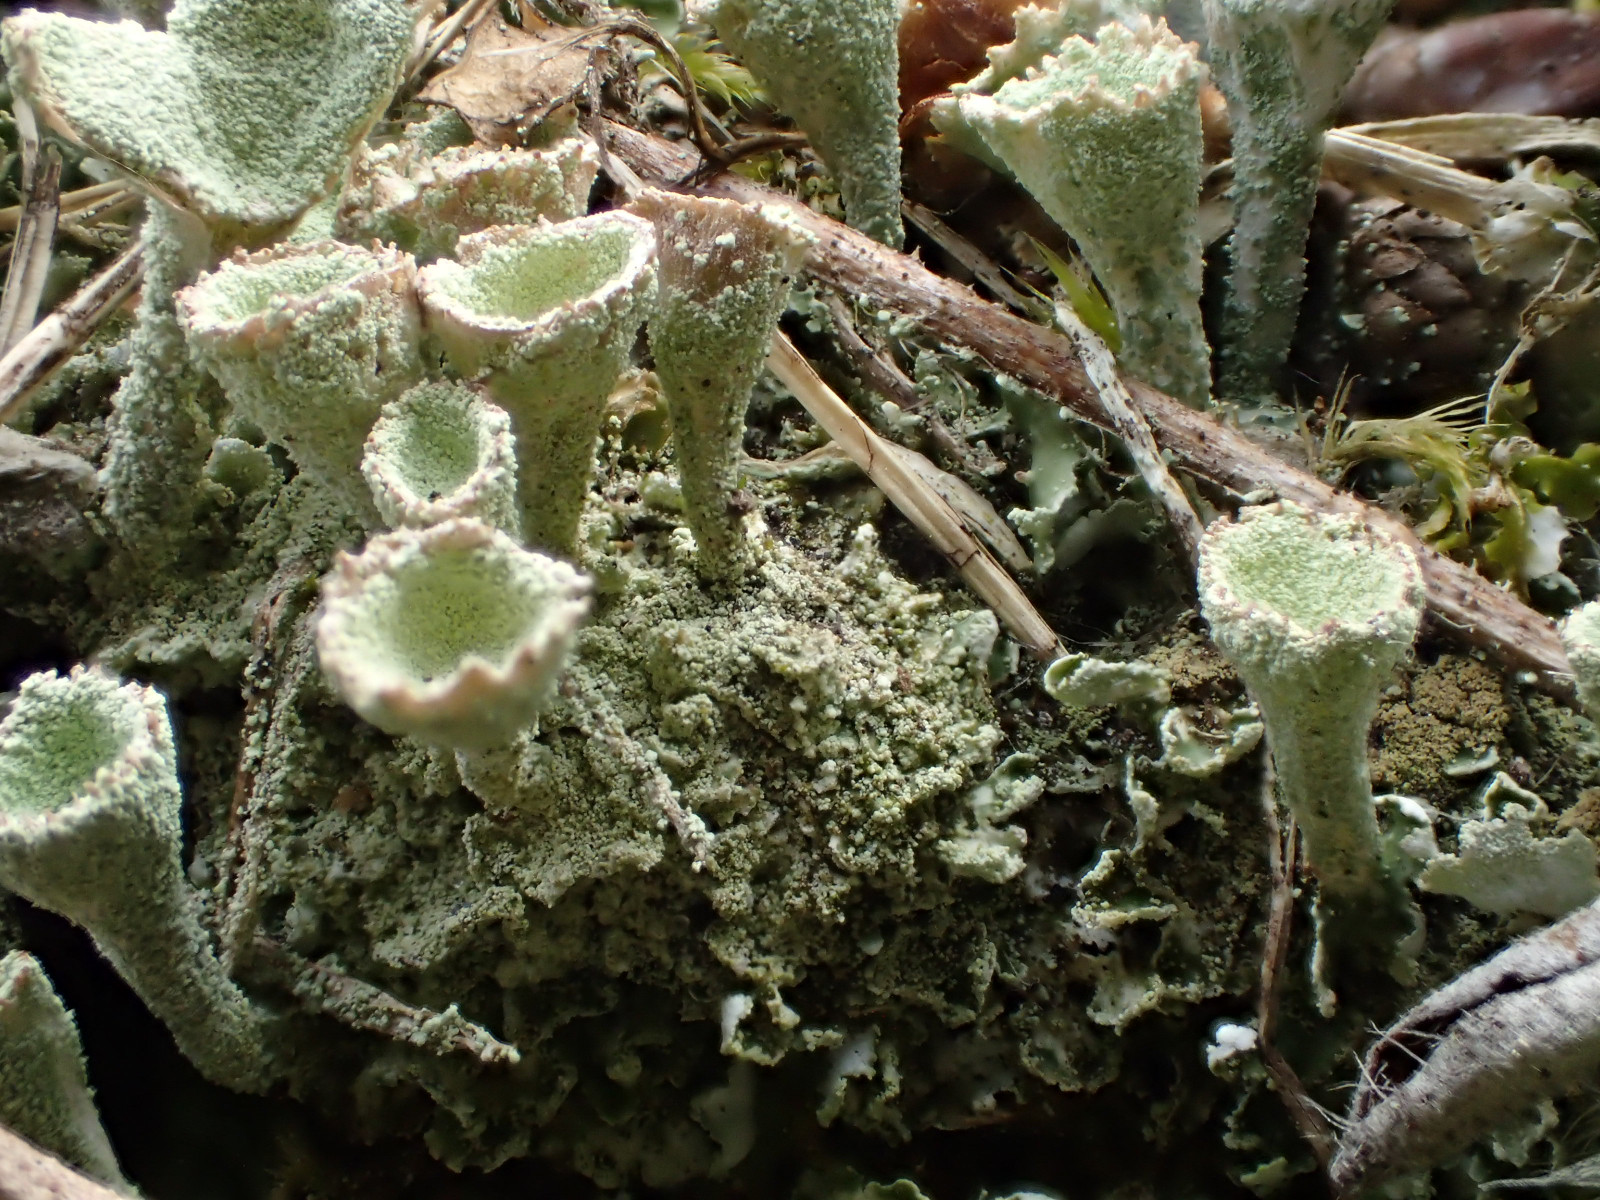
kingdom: Fungi
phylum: Ascomycota
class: Lecanoromycetes
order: Lecanorales
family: Cladoniaceae
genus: Cladonia
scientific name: Cladonia humilis
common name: lav bægerlav
